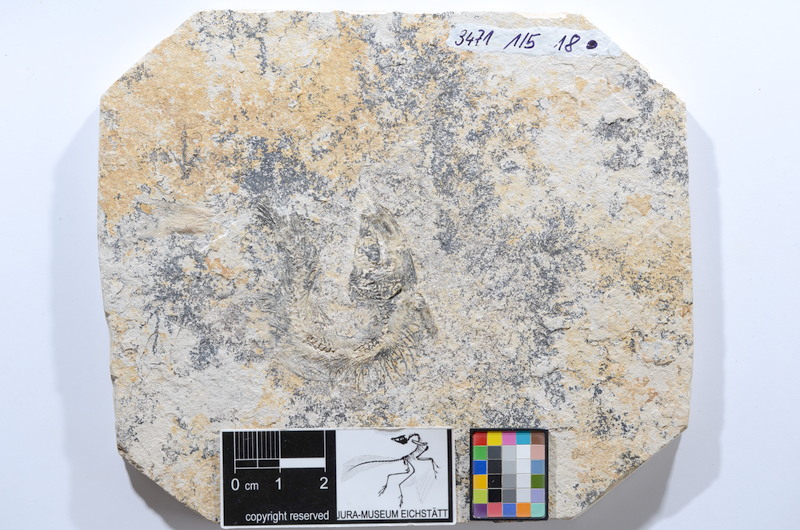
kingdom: Animalia
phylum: Chordata
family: Ascalaboidae
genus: Tharsis
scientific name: Tharsis dubius
